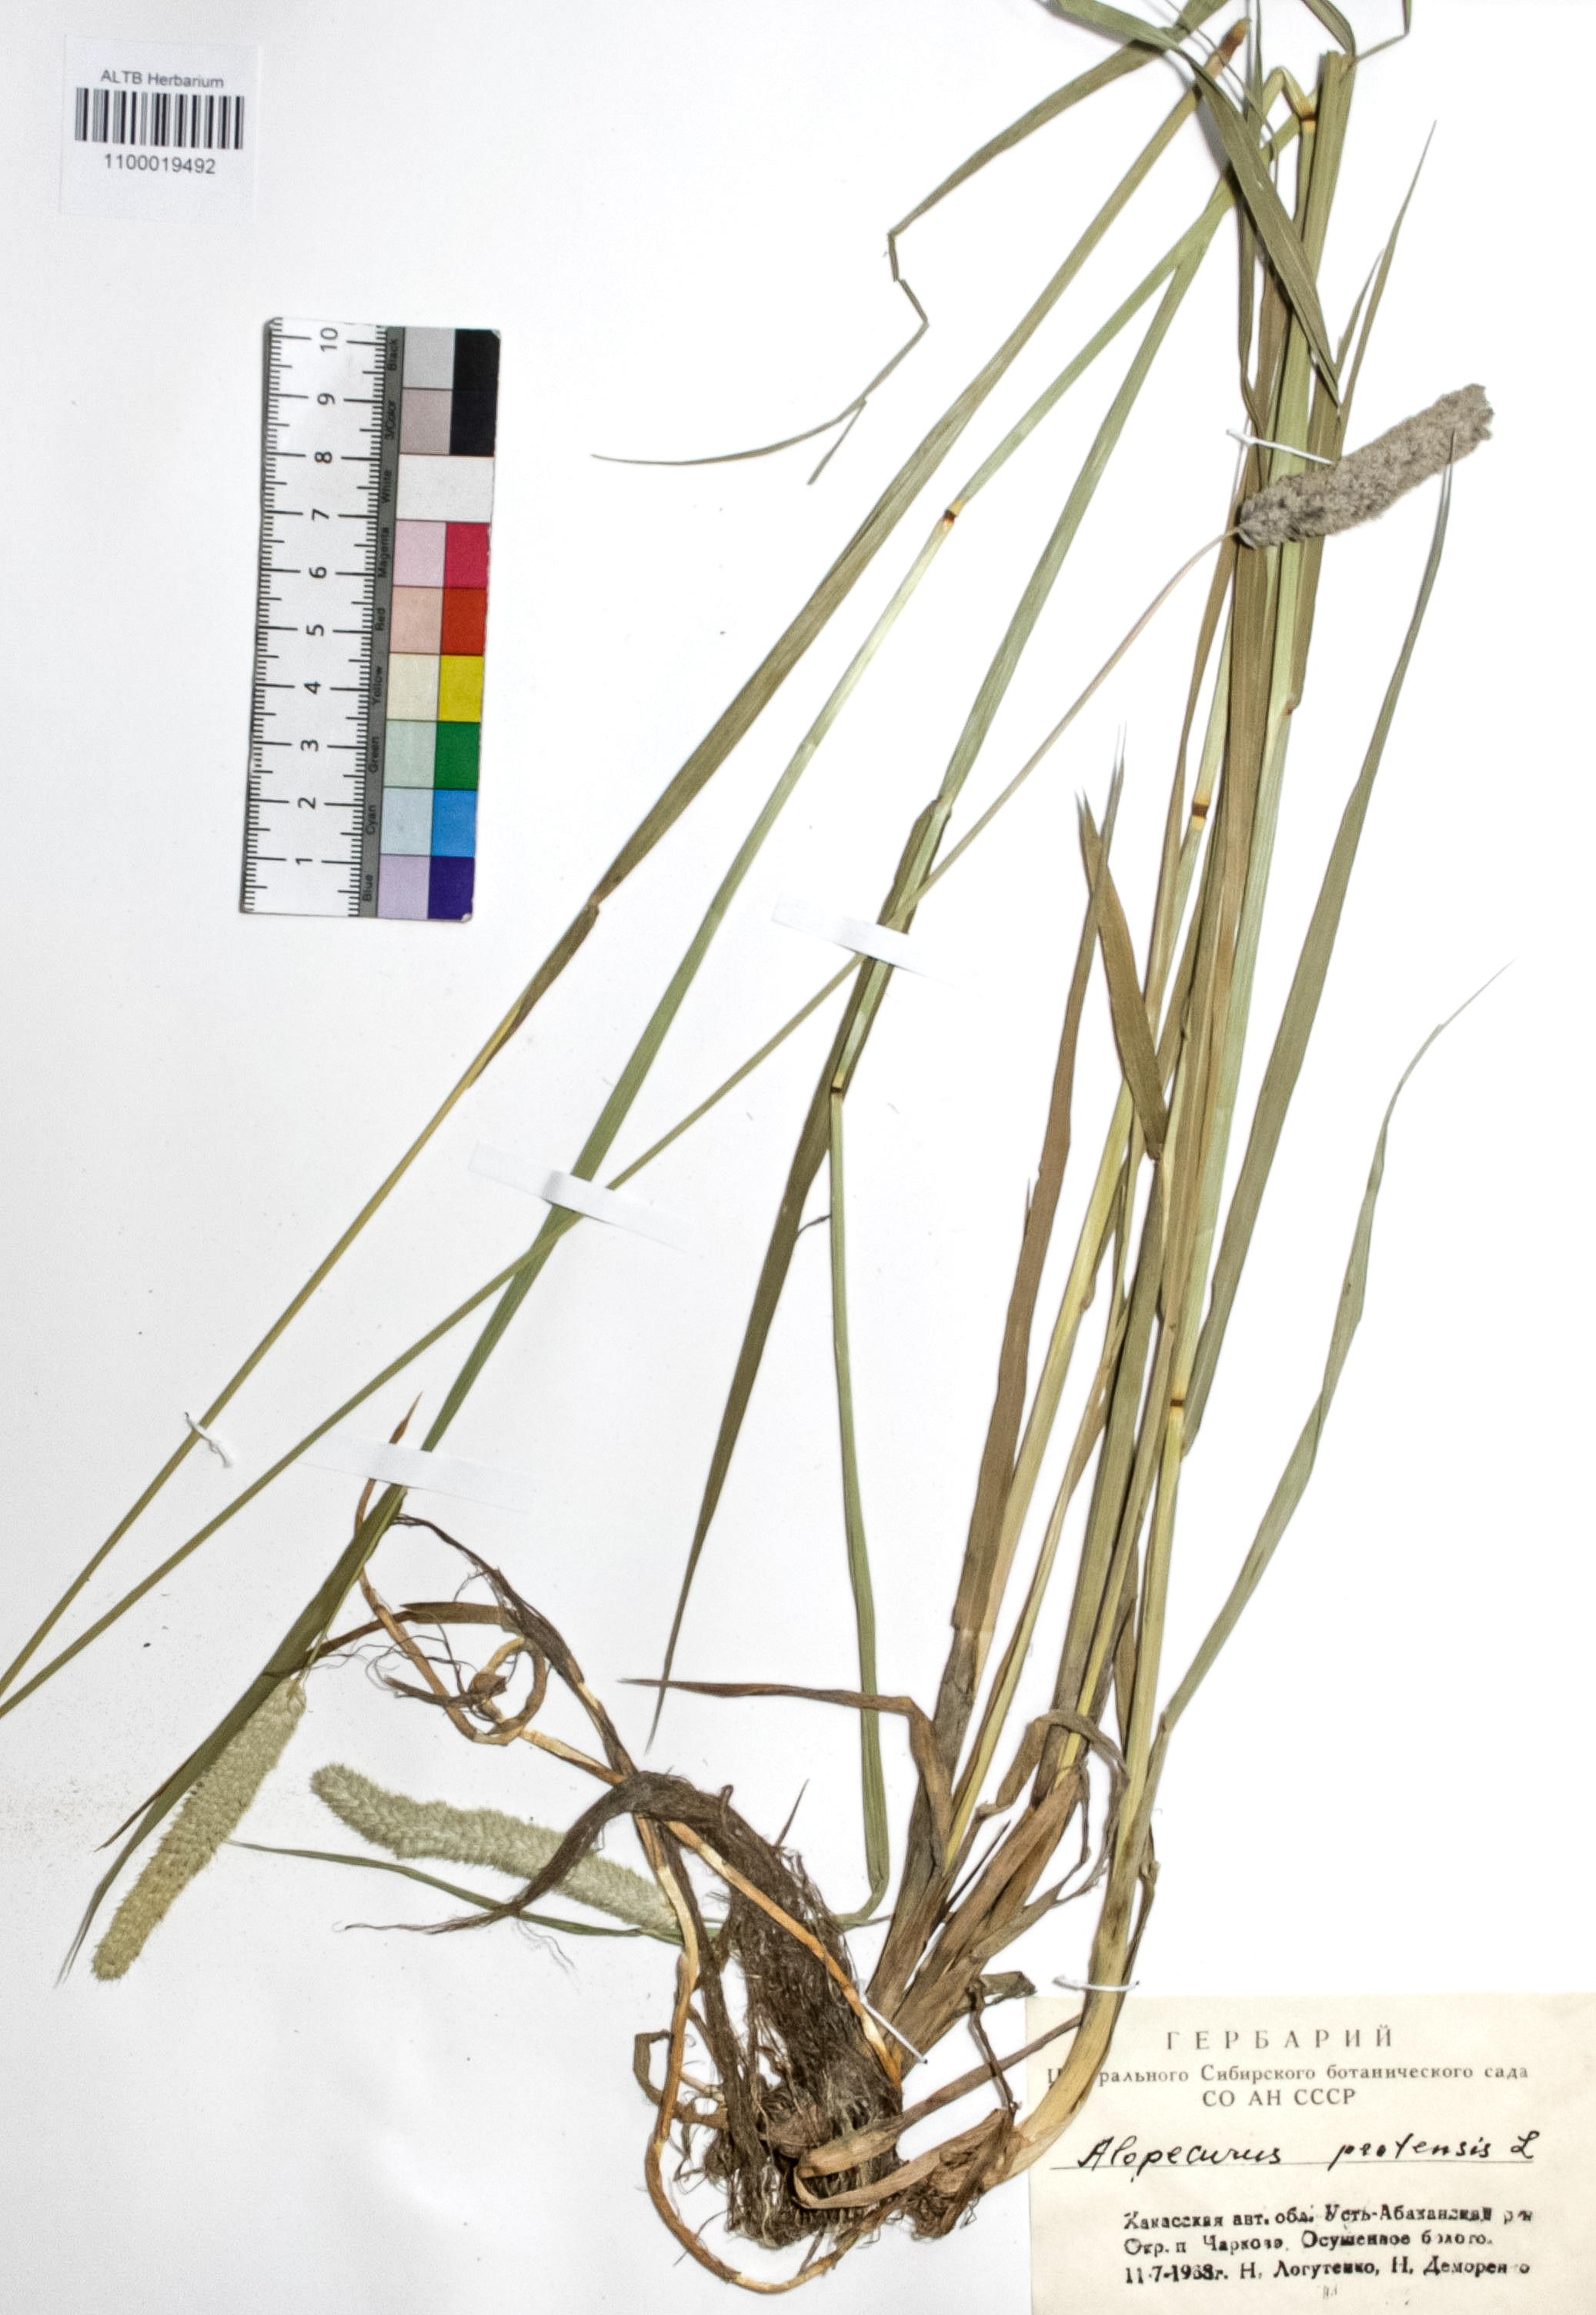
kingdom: Plantae
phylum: Tracheophyta
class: Liliopsida
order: Poales
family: Poaceae
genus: Alopecurus
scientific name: Alopecurus pratensis
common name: Meadow foxtail
